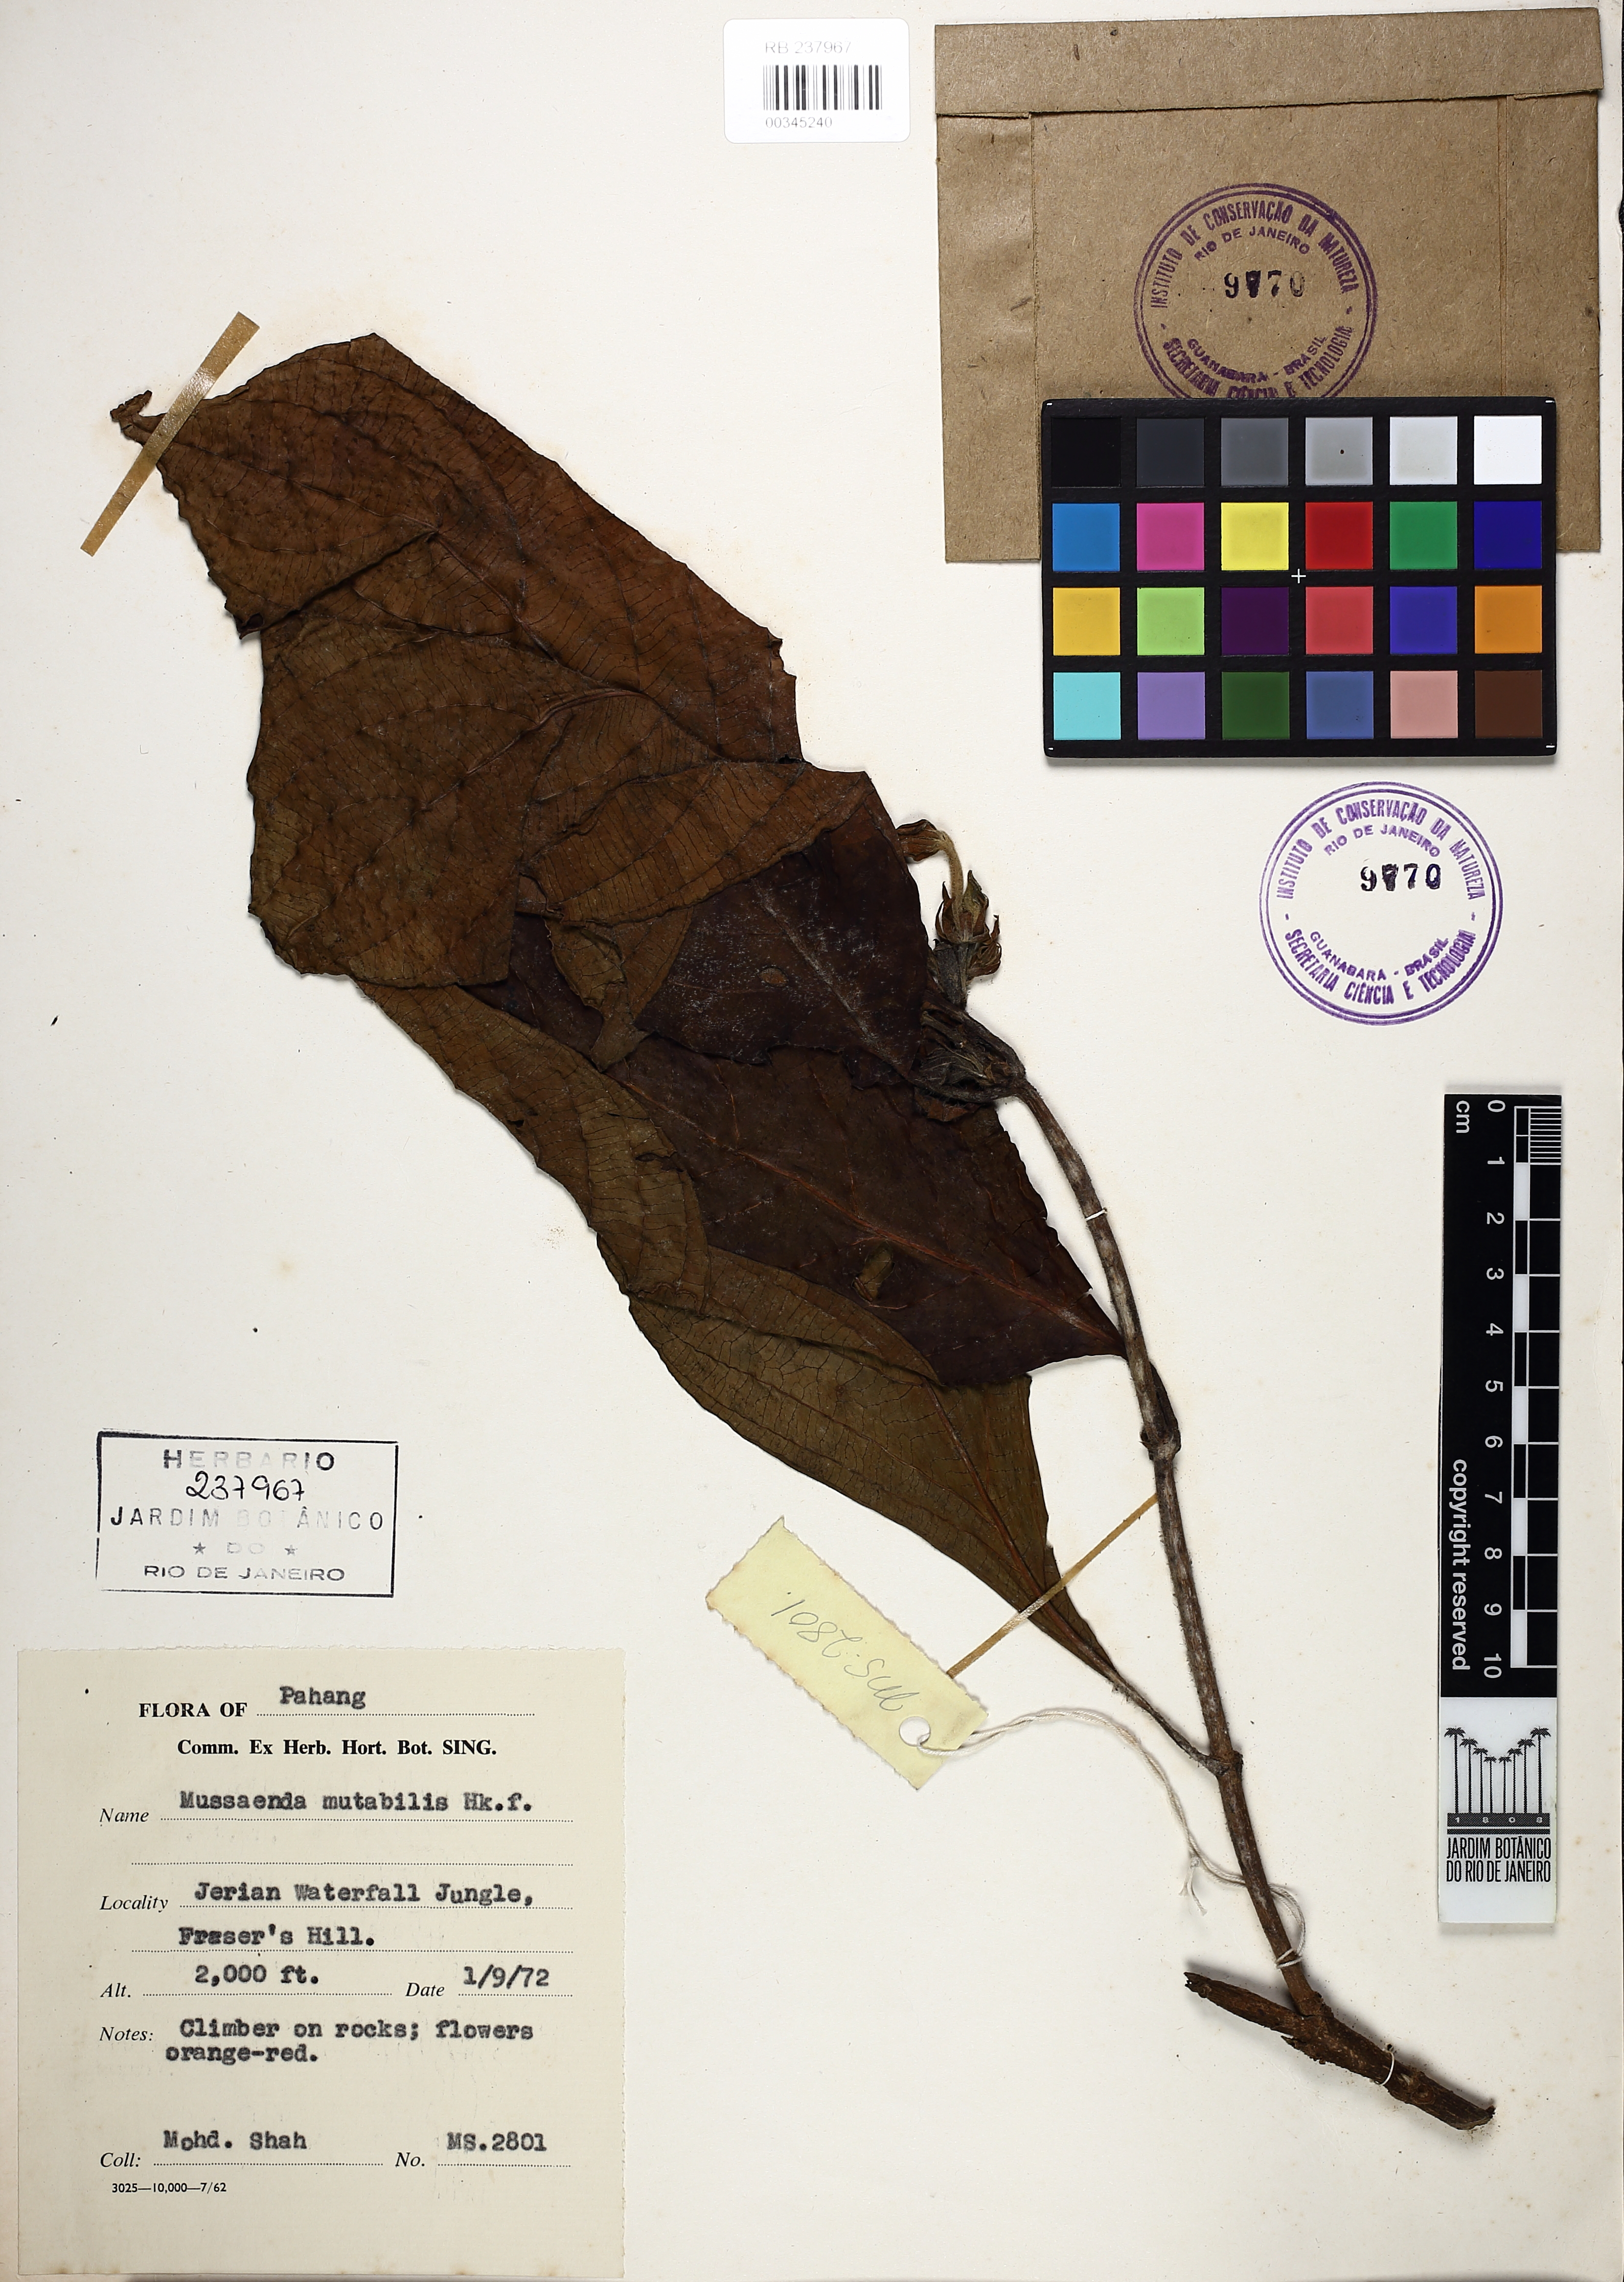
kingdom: Plantae
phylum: Tracheophyta
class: Magnoliopsida
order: Gentianales
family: Rubiaceae
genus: Mussaenda
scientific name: Mussaenda maingayi
